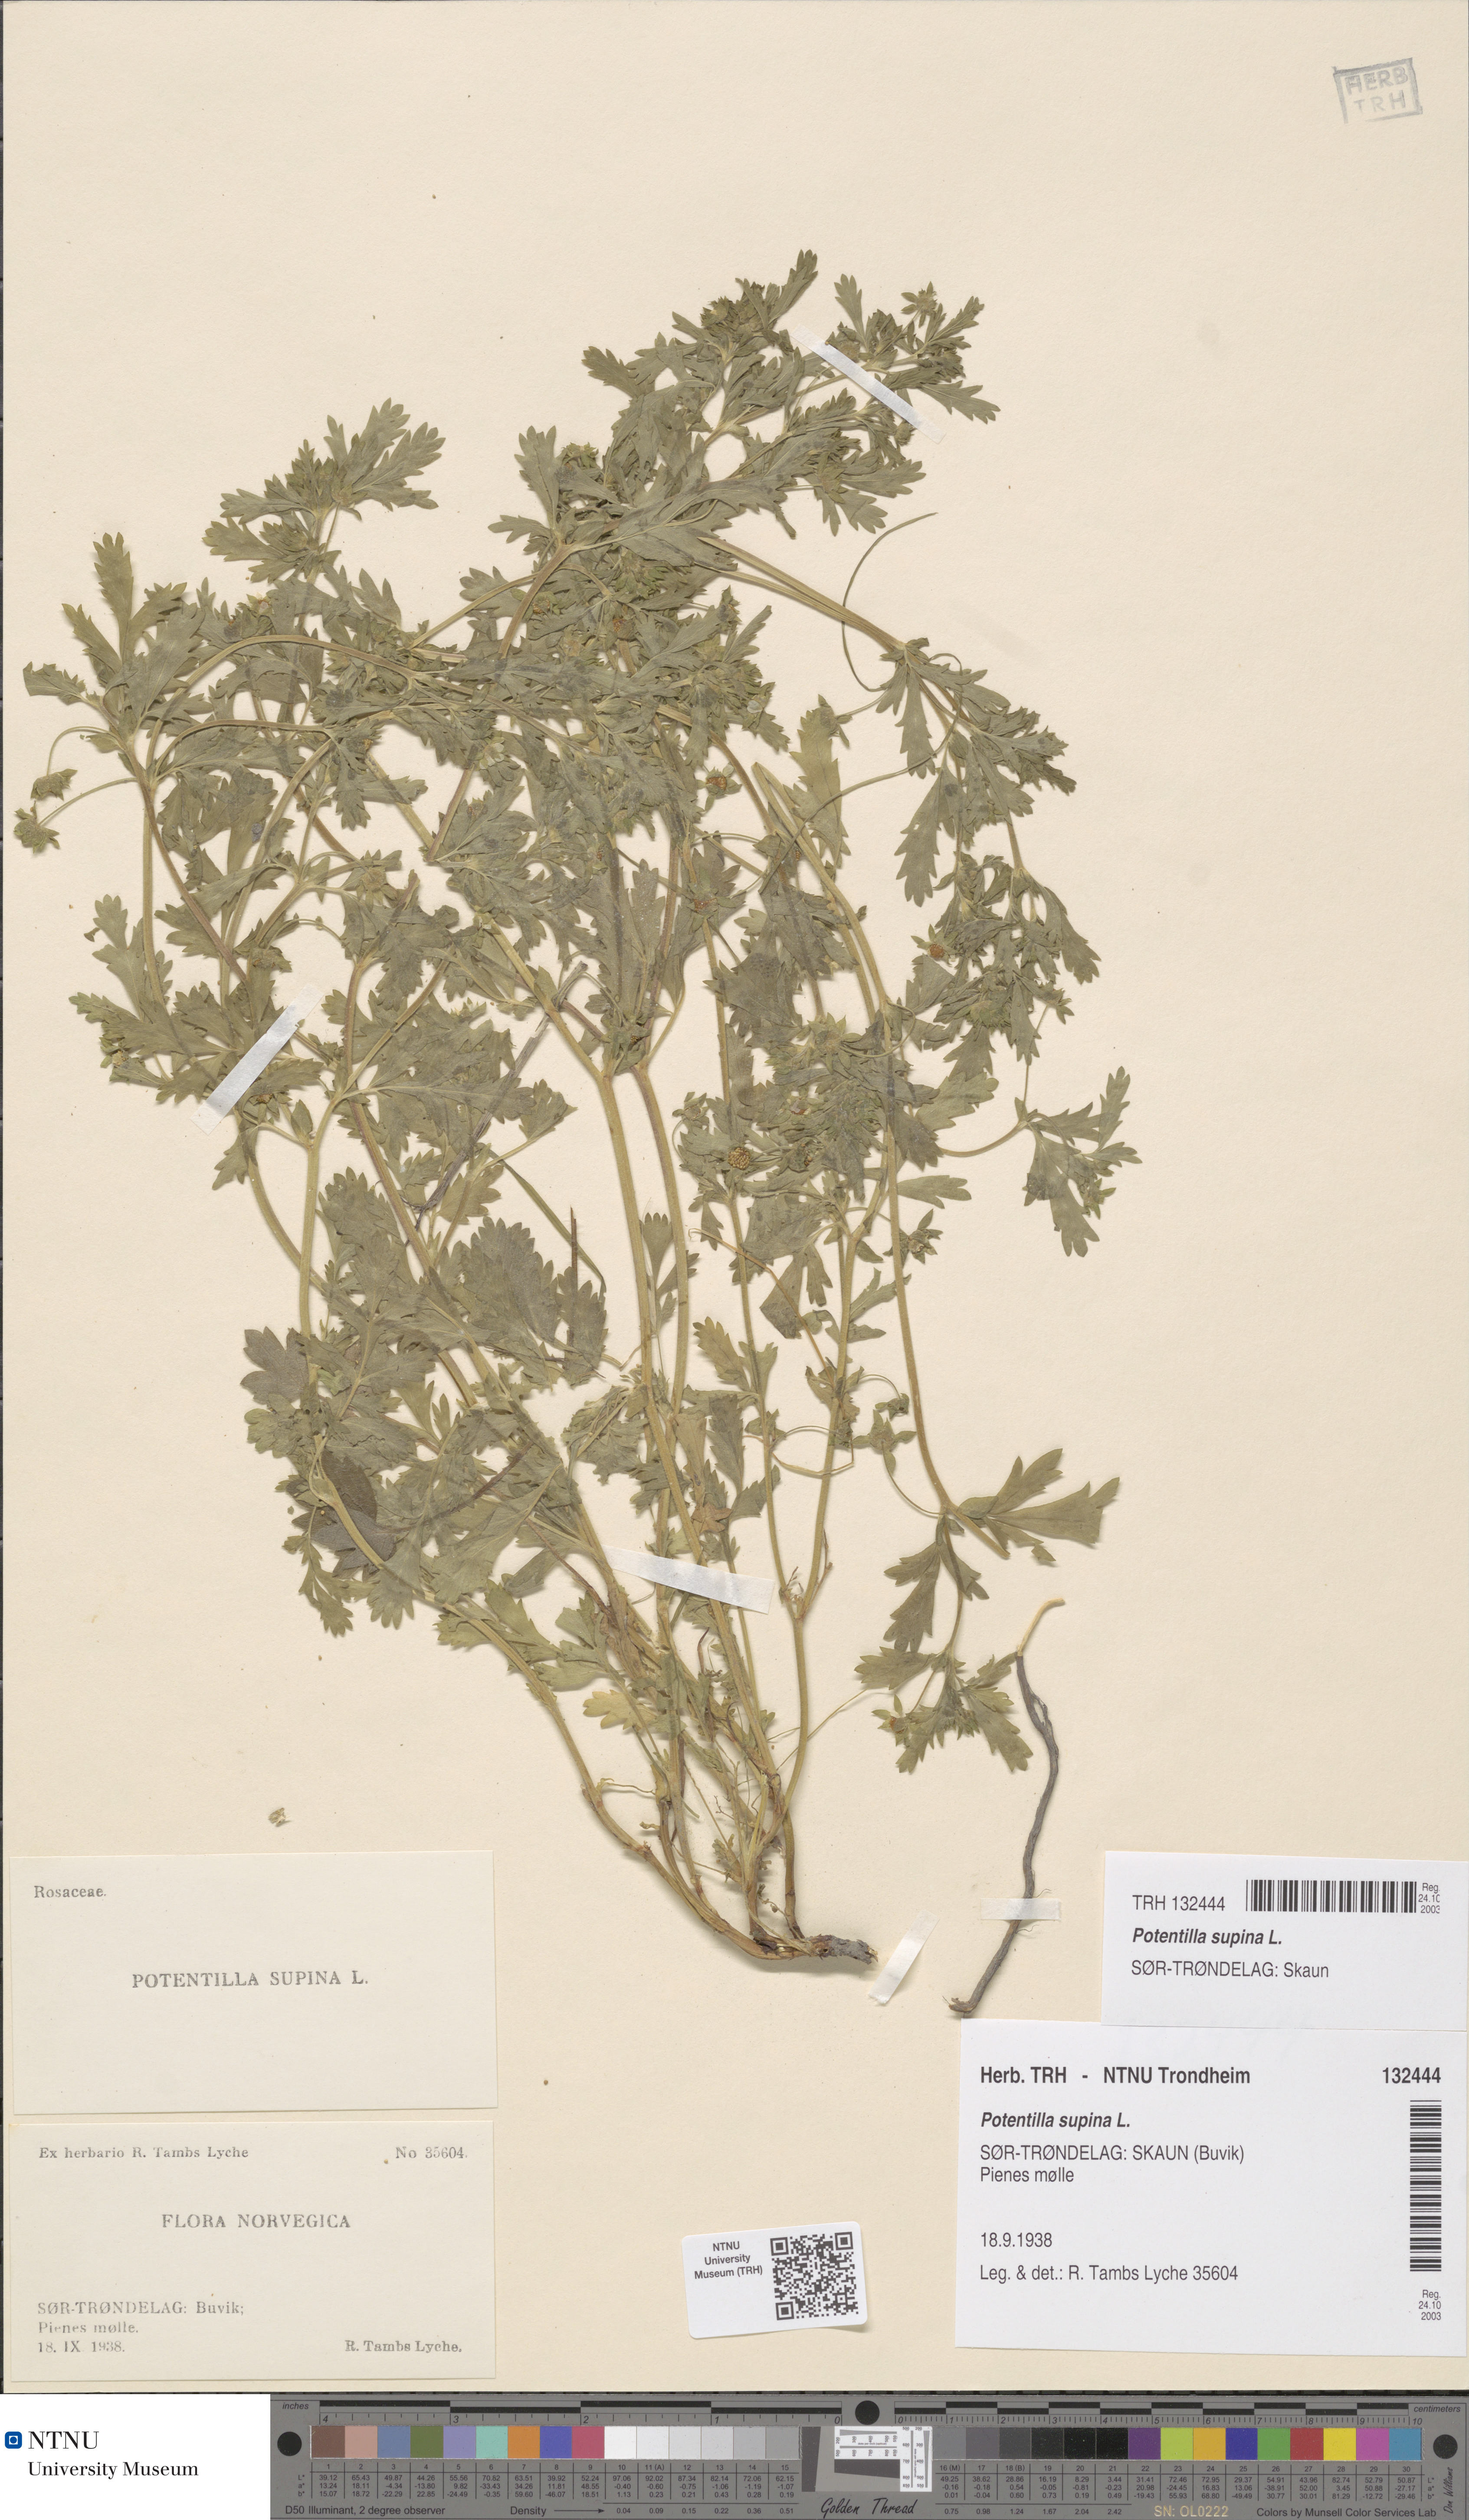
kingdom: Plantae
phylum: Tracheophyta
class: Magnoliopsida
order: Rosales
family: Rosaceae
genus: Potentilla
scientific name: Potentilla supina
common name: Prostrate cinquefoil
